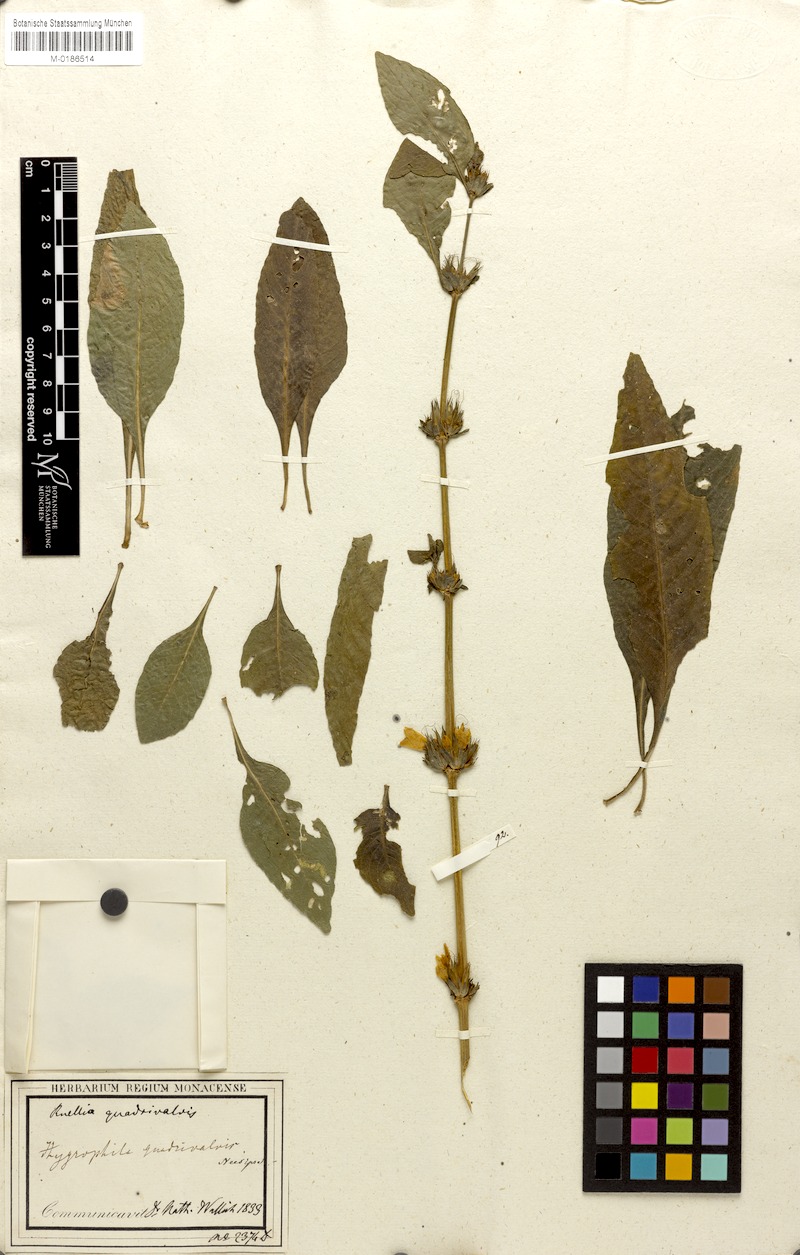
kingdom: Plantae
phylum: Tracheophyta
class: Magnoliopsida
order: Lamiales
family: Acanthaceae
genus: Hygrophila
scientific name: Hygrophila ringens
